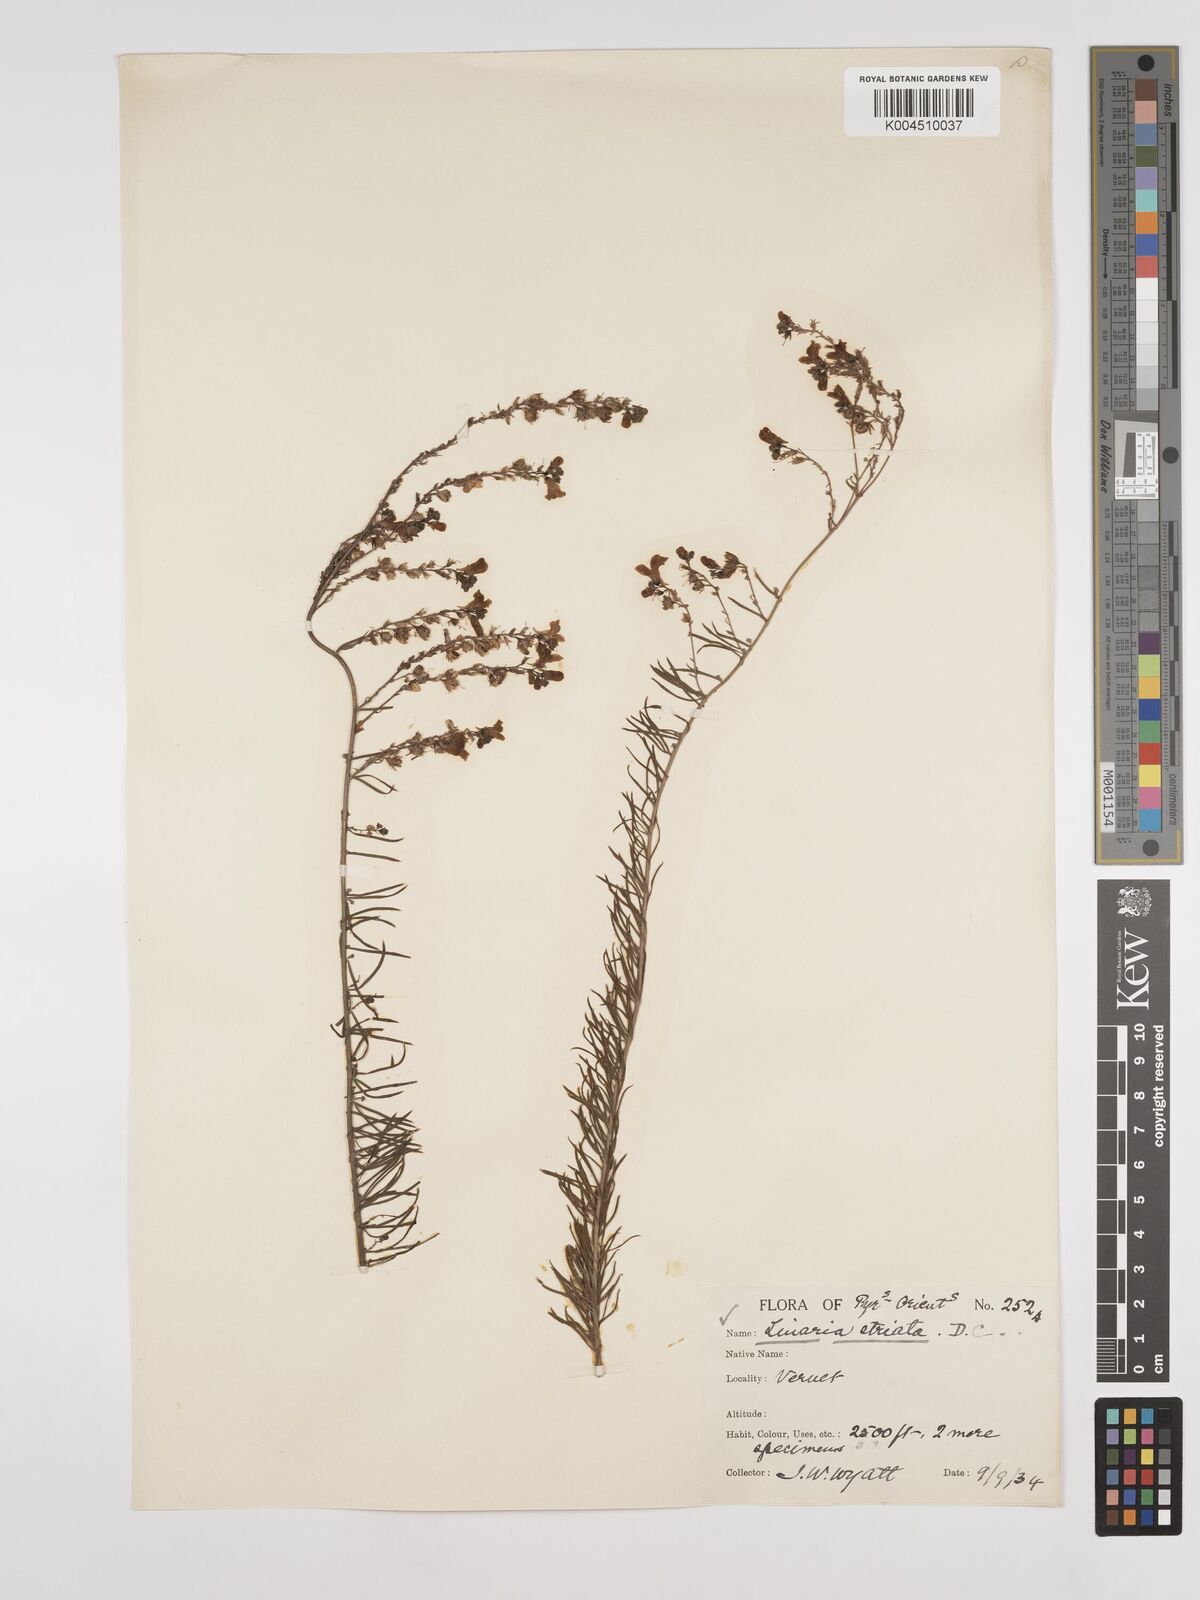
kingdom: Plantae
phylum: Tracheophyta
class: Magnoliopsida
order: Lamiales
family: Plantaginaceae
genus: Linaria
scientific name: Linaria repens
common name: Pale toadflax
